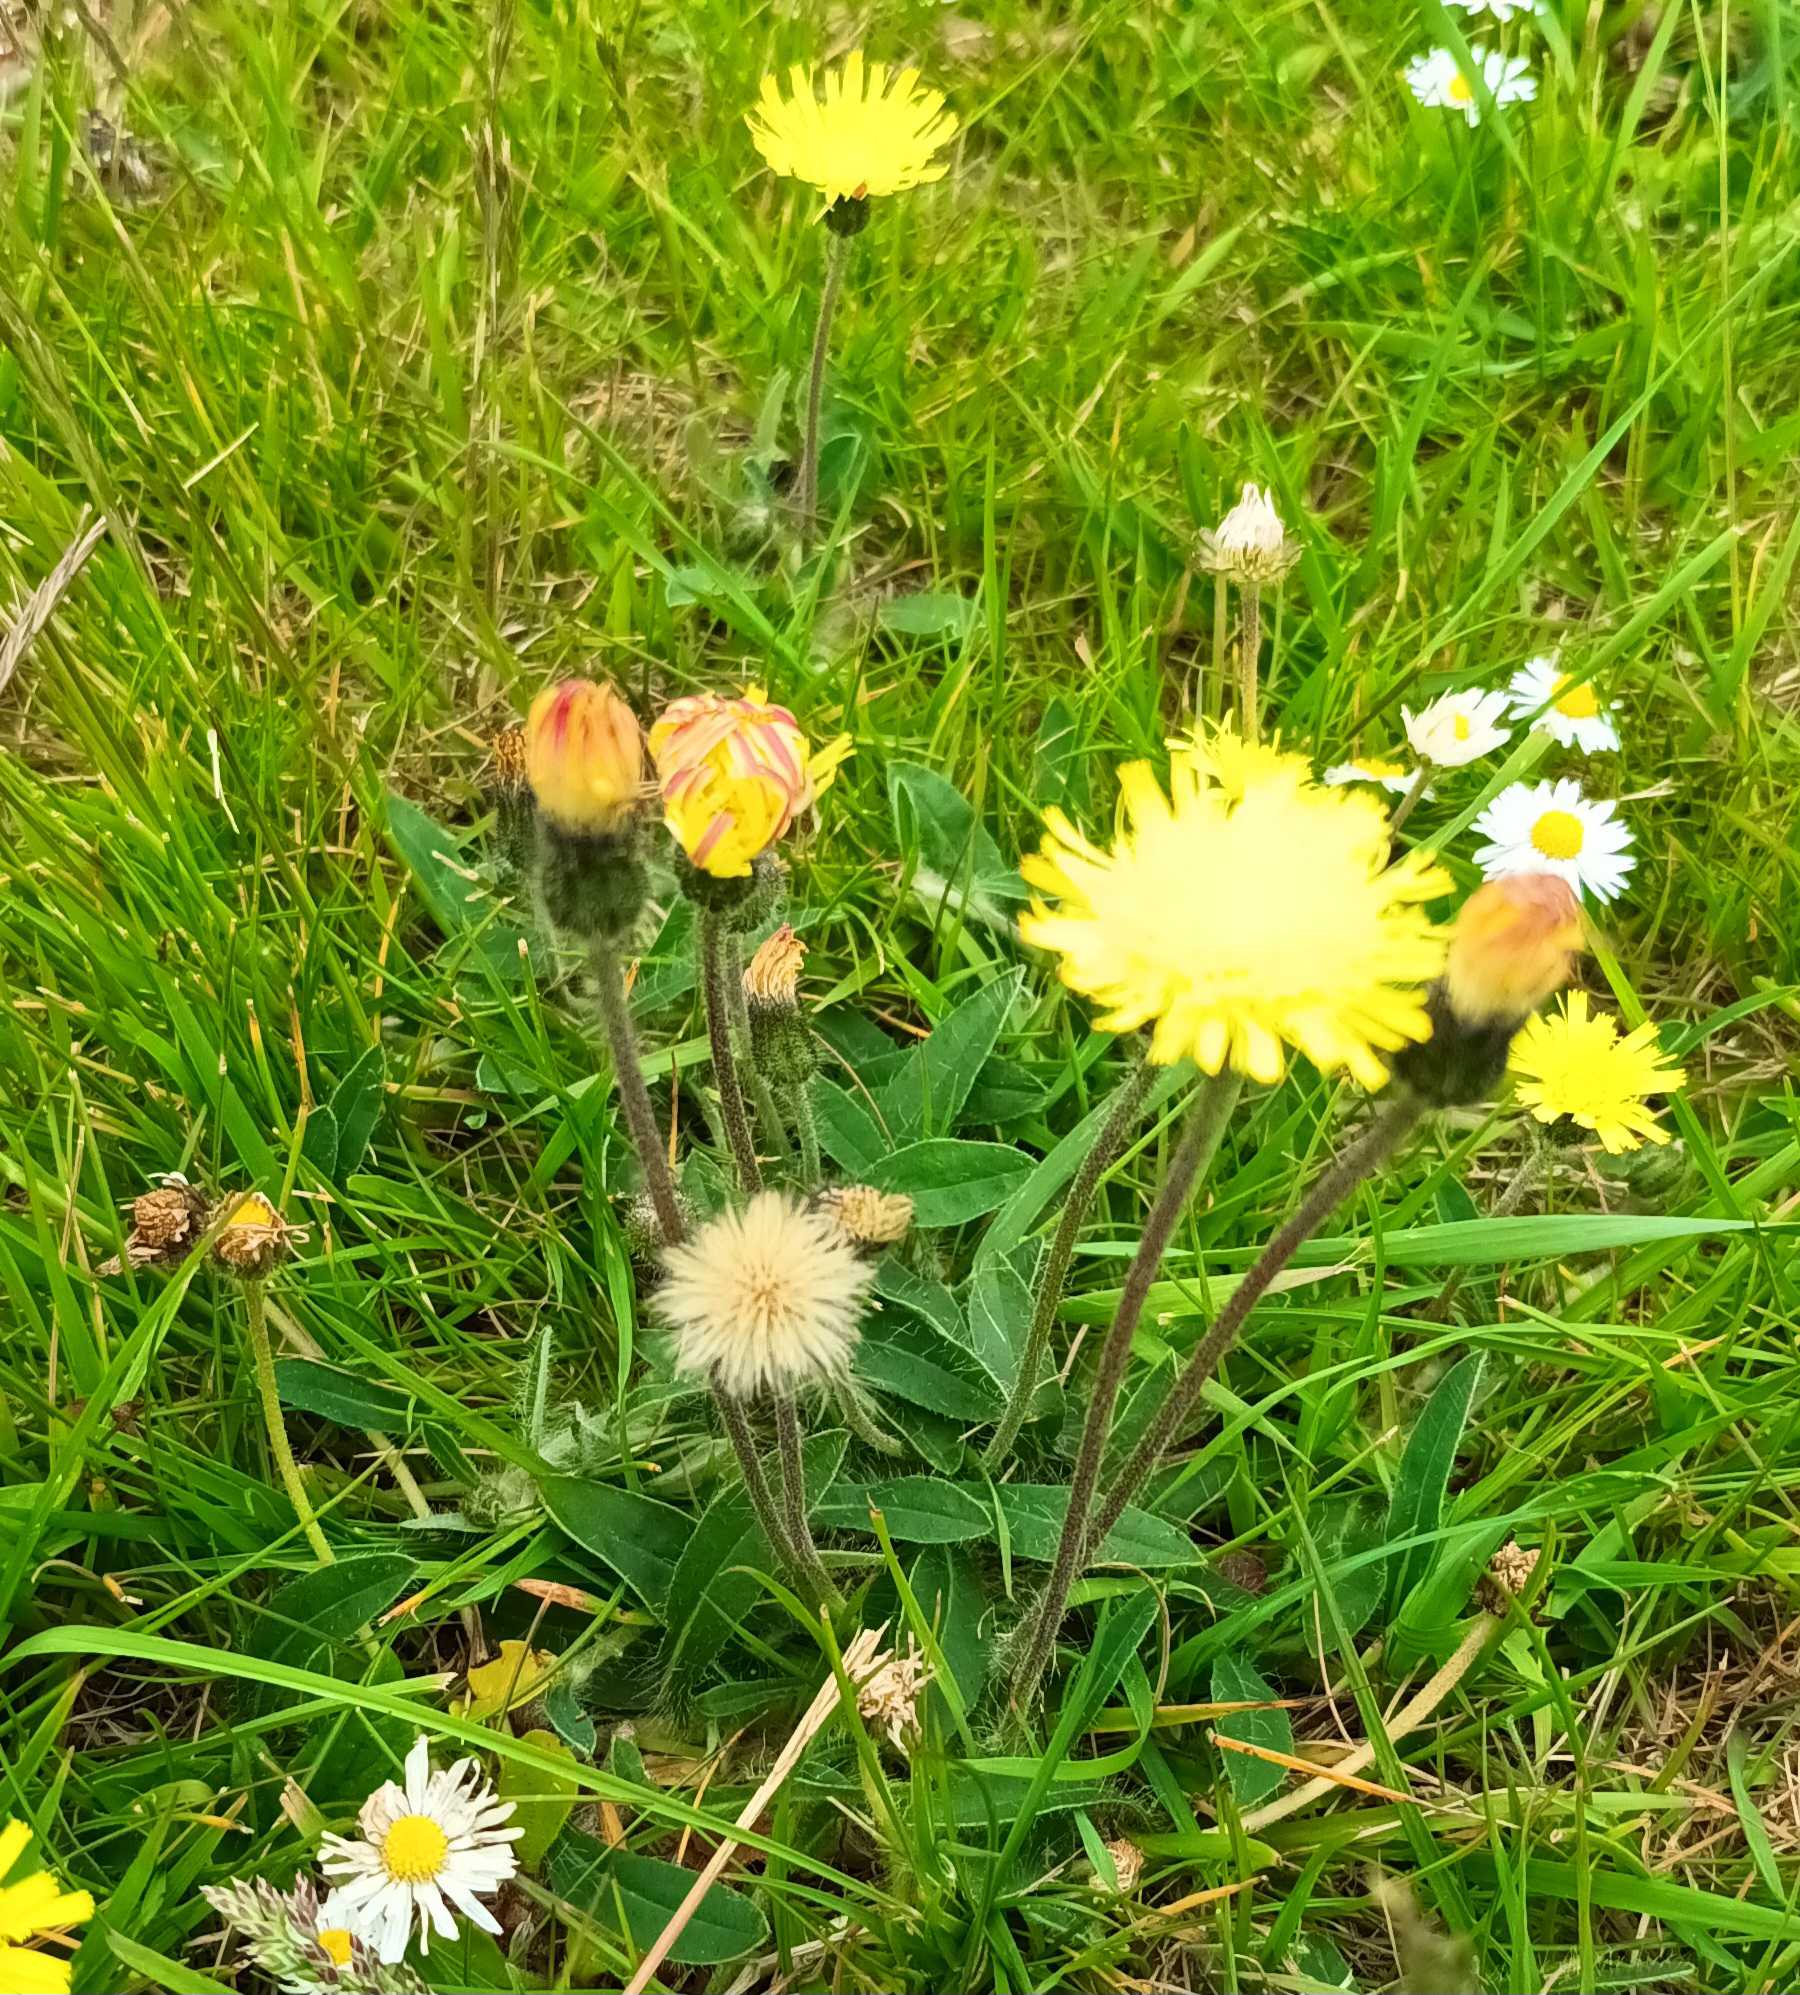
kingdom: Plantae
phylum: Tracheophyta
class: Magnoliopsida
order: Asterales
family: Asteraceae
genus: Pilosella
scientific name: Pilosella officinarum
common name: Håret høgeurt
